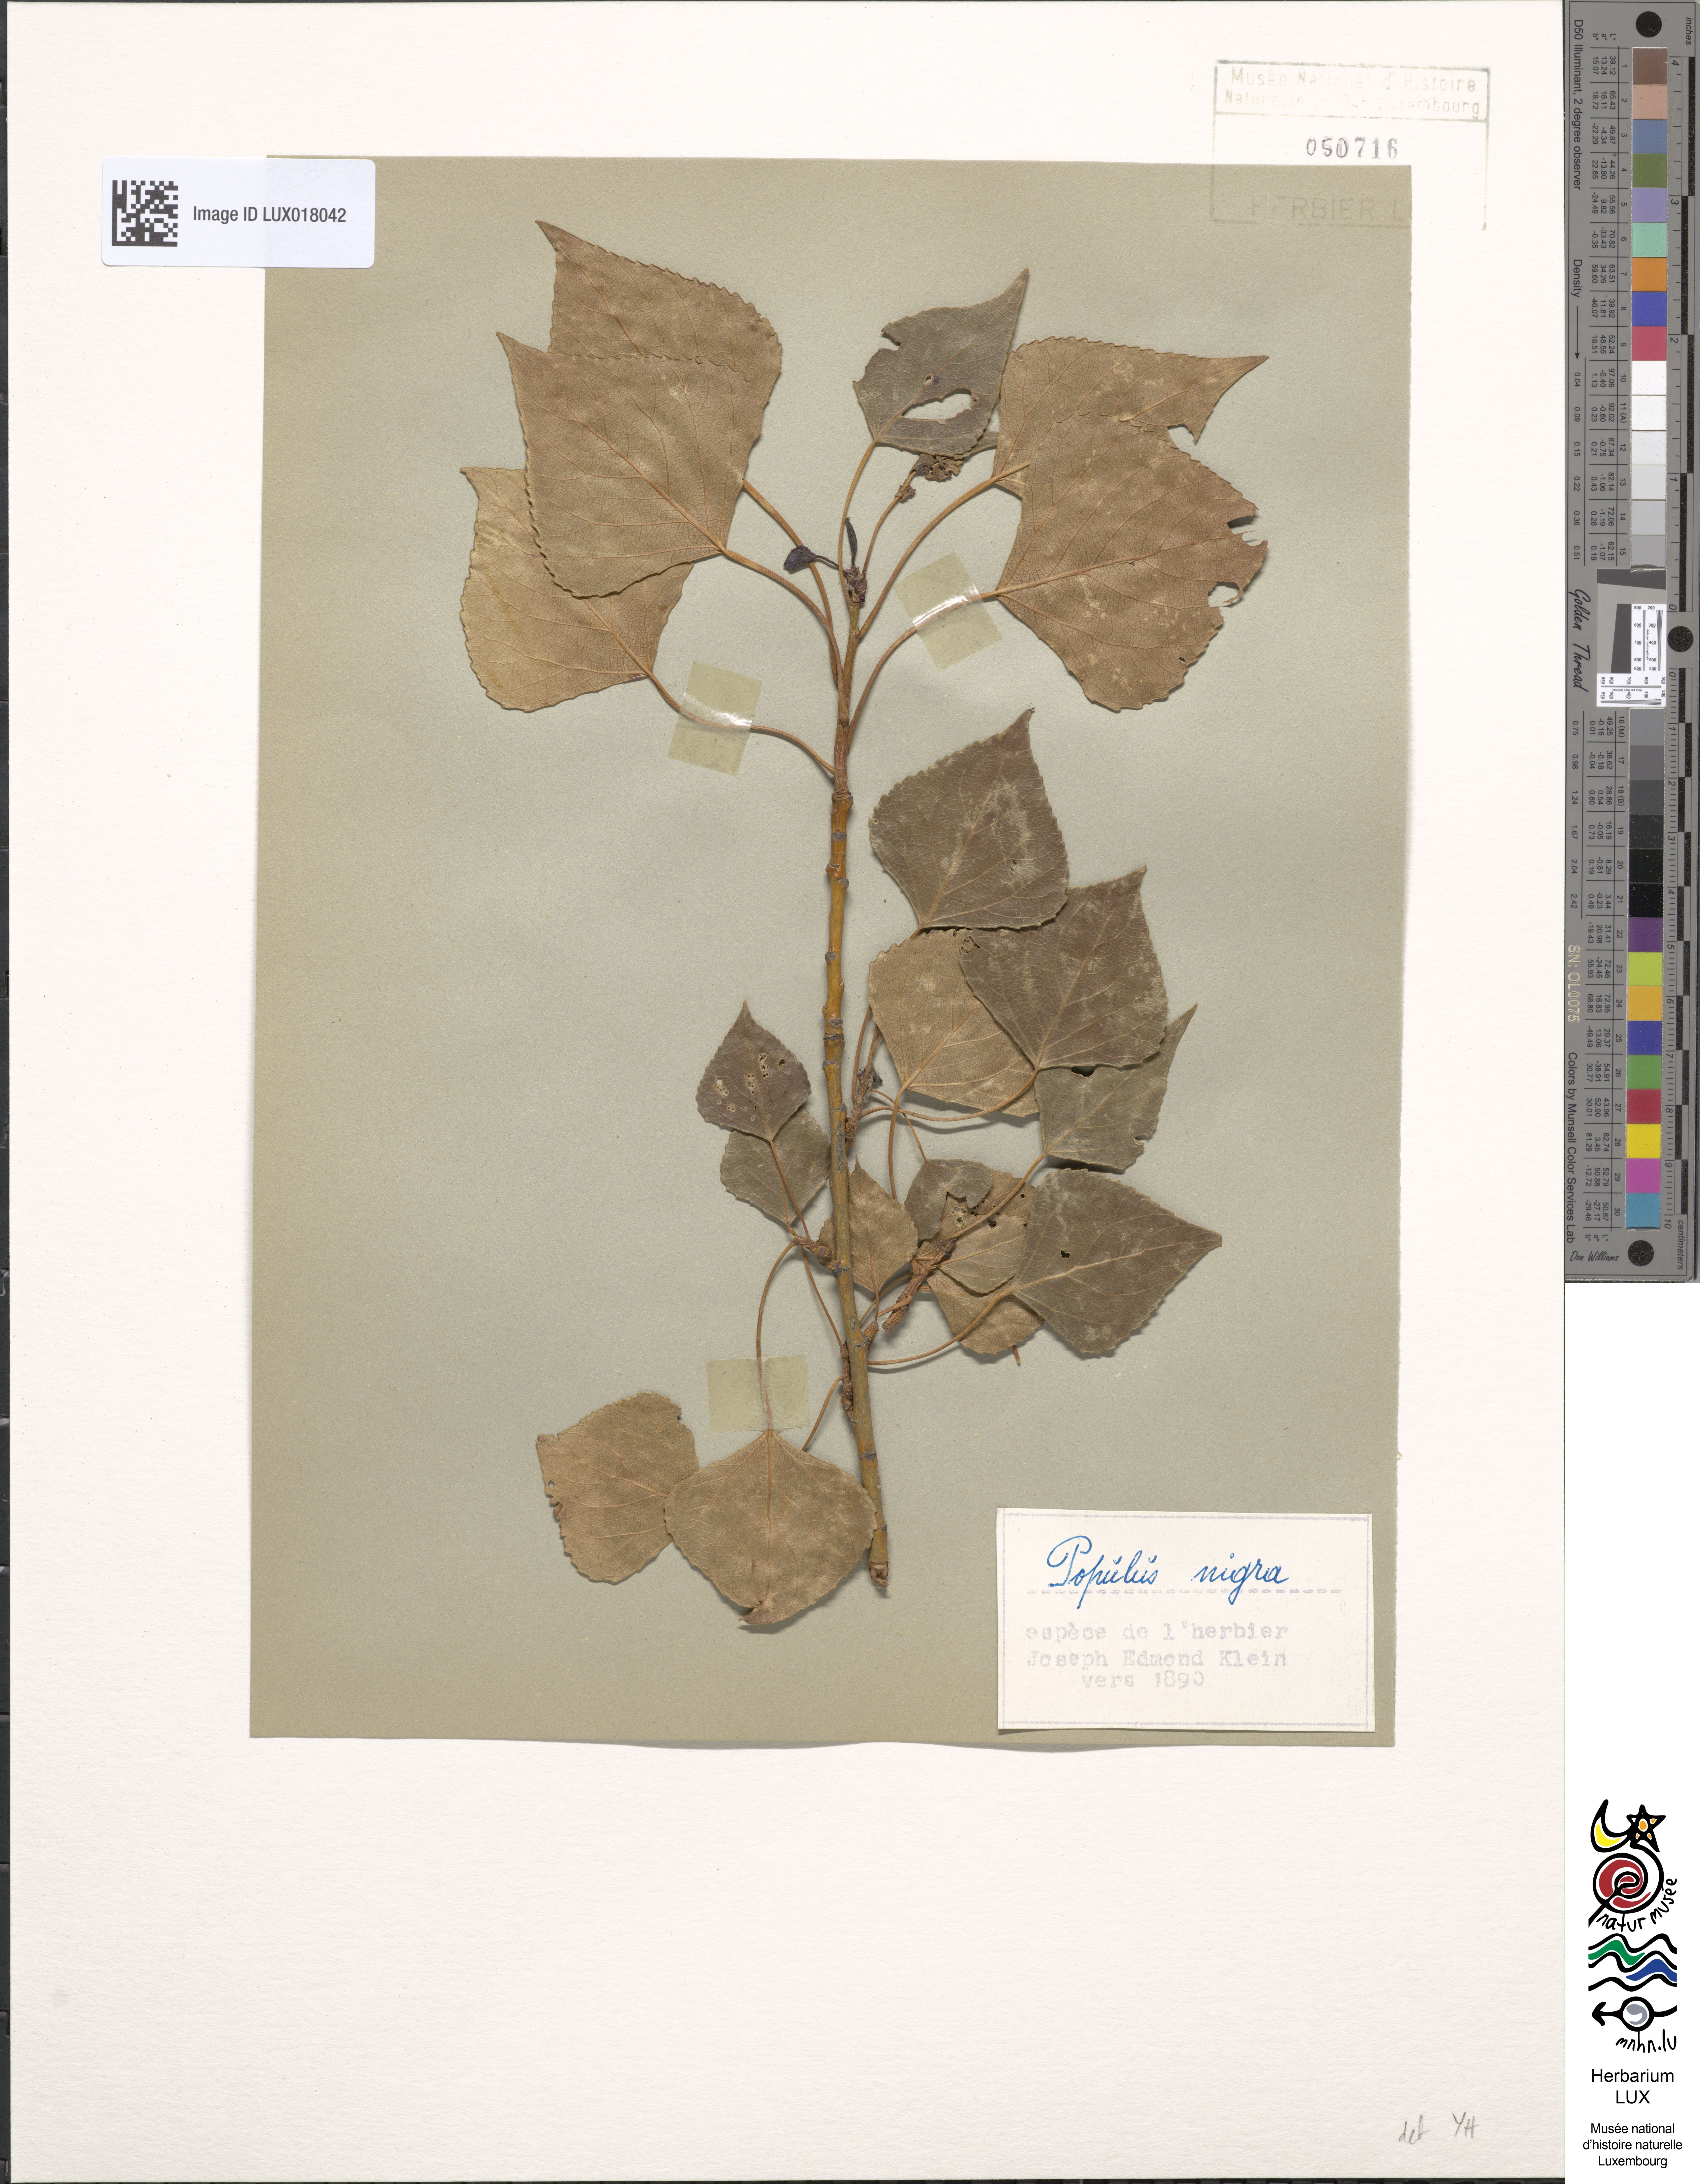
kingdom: Plantae
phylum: Tracheophyta
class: Magnoliopsida
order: Malpighiales
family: Salicaceae
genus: Populus
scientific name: Populus nigra
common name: Black poplar
